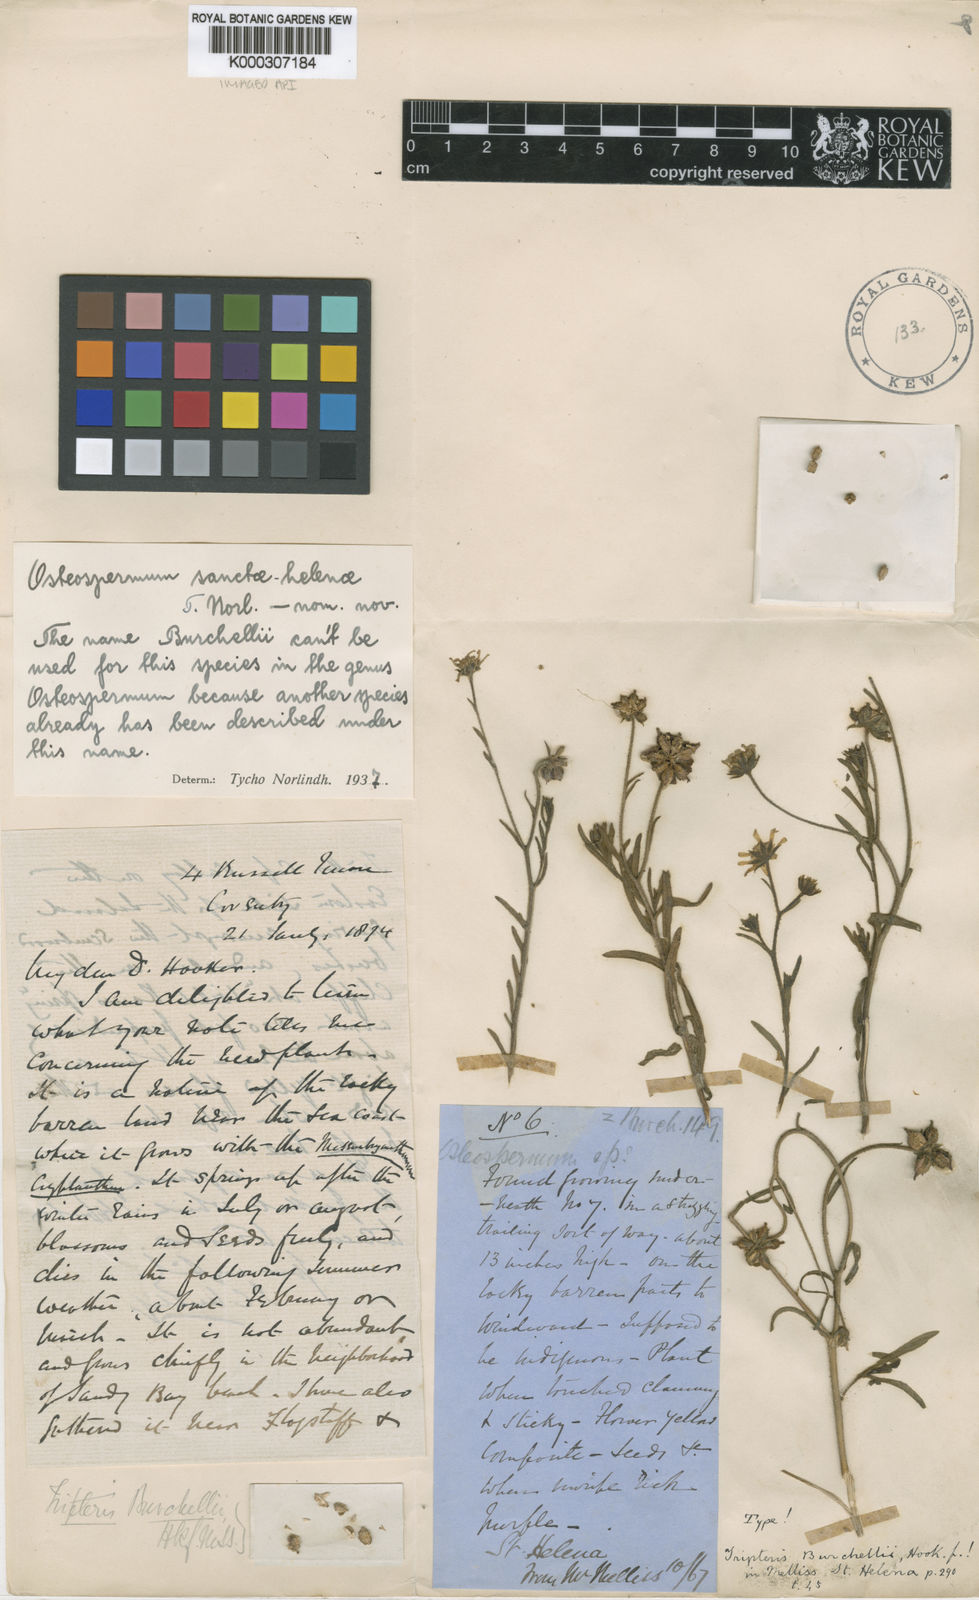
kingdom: Plantae
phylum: Tracheophyta
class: Magnoliopsida
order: Asterales
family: Asteraceae
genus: Osteospermum
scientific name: Osteospermum sanctae-helenae
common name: Boneseed
